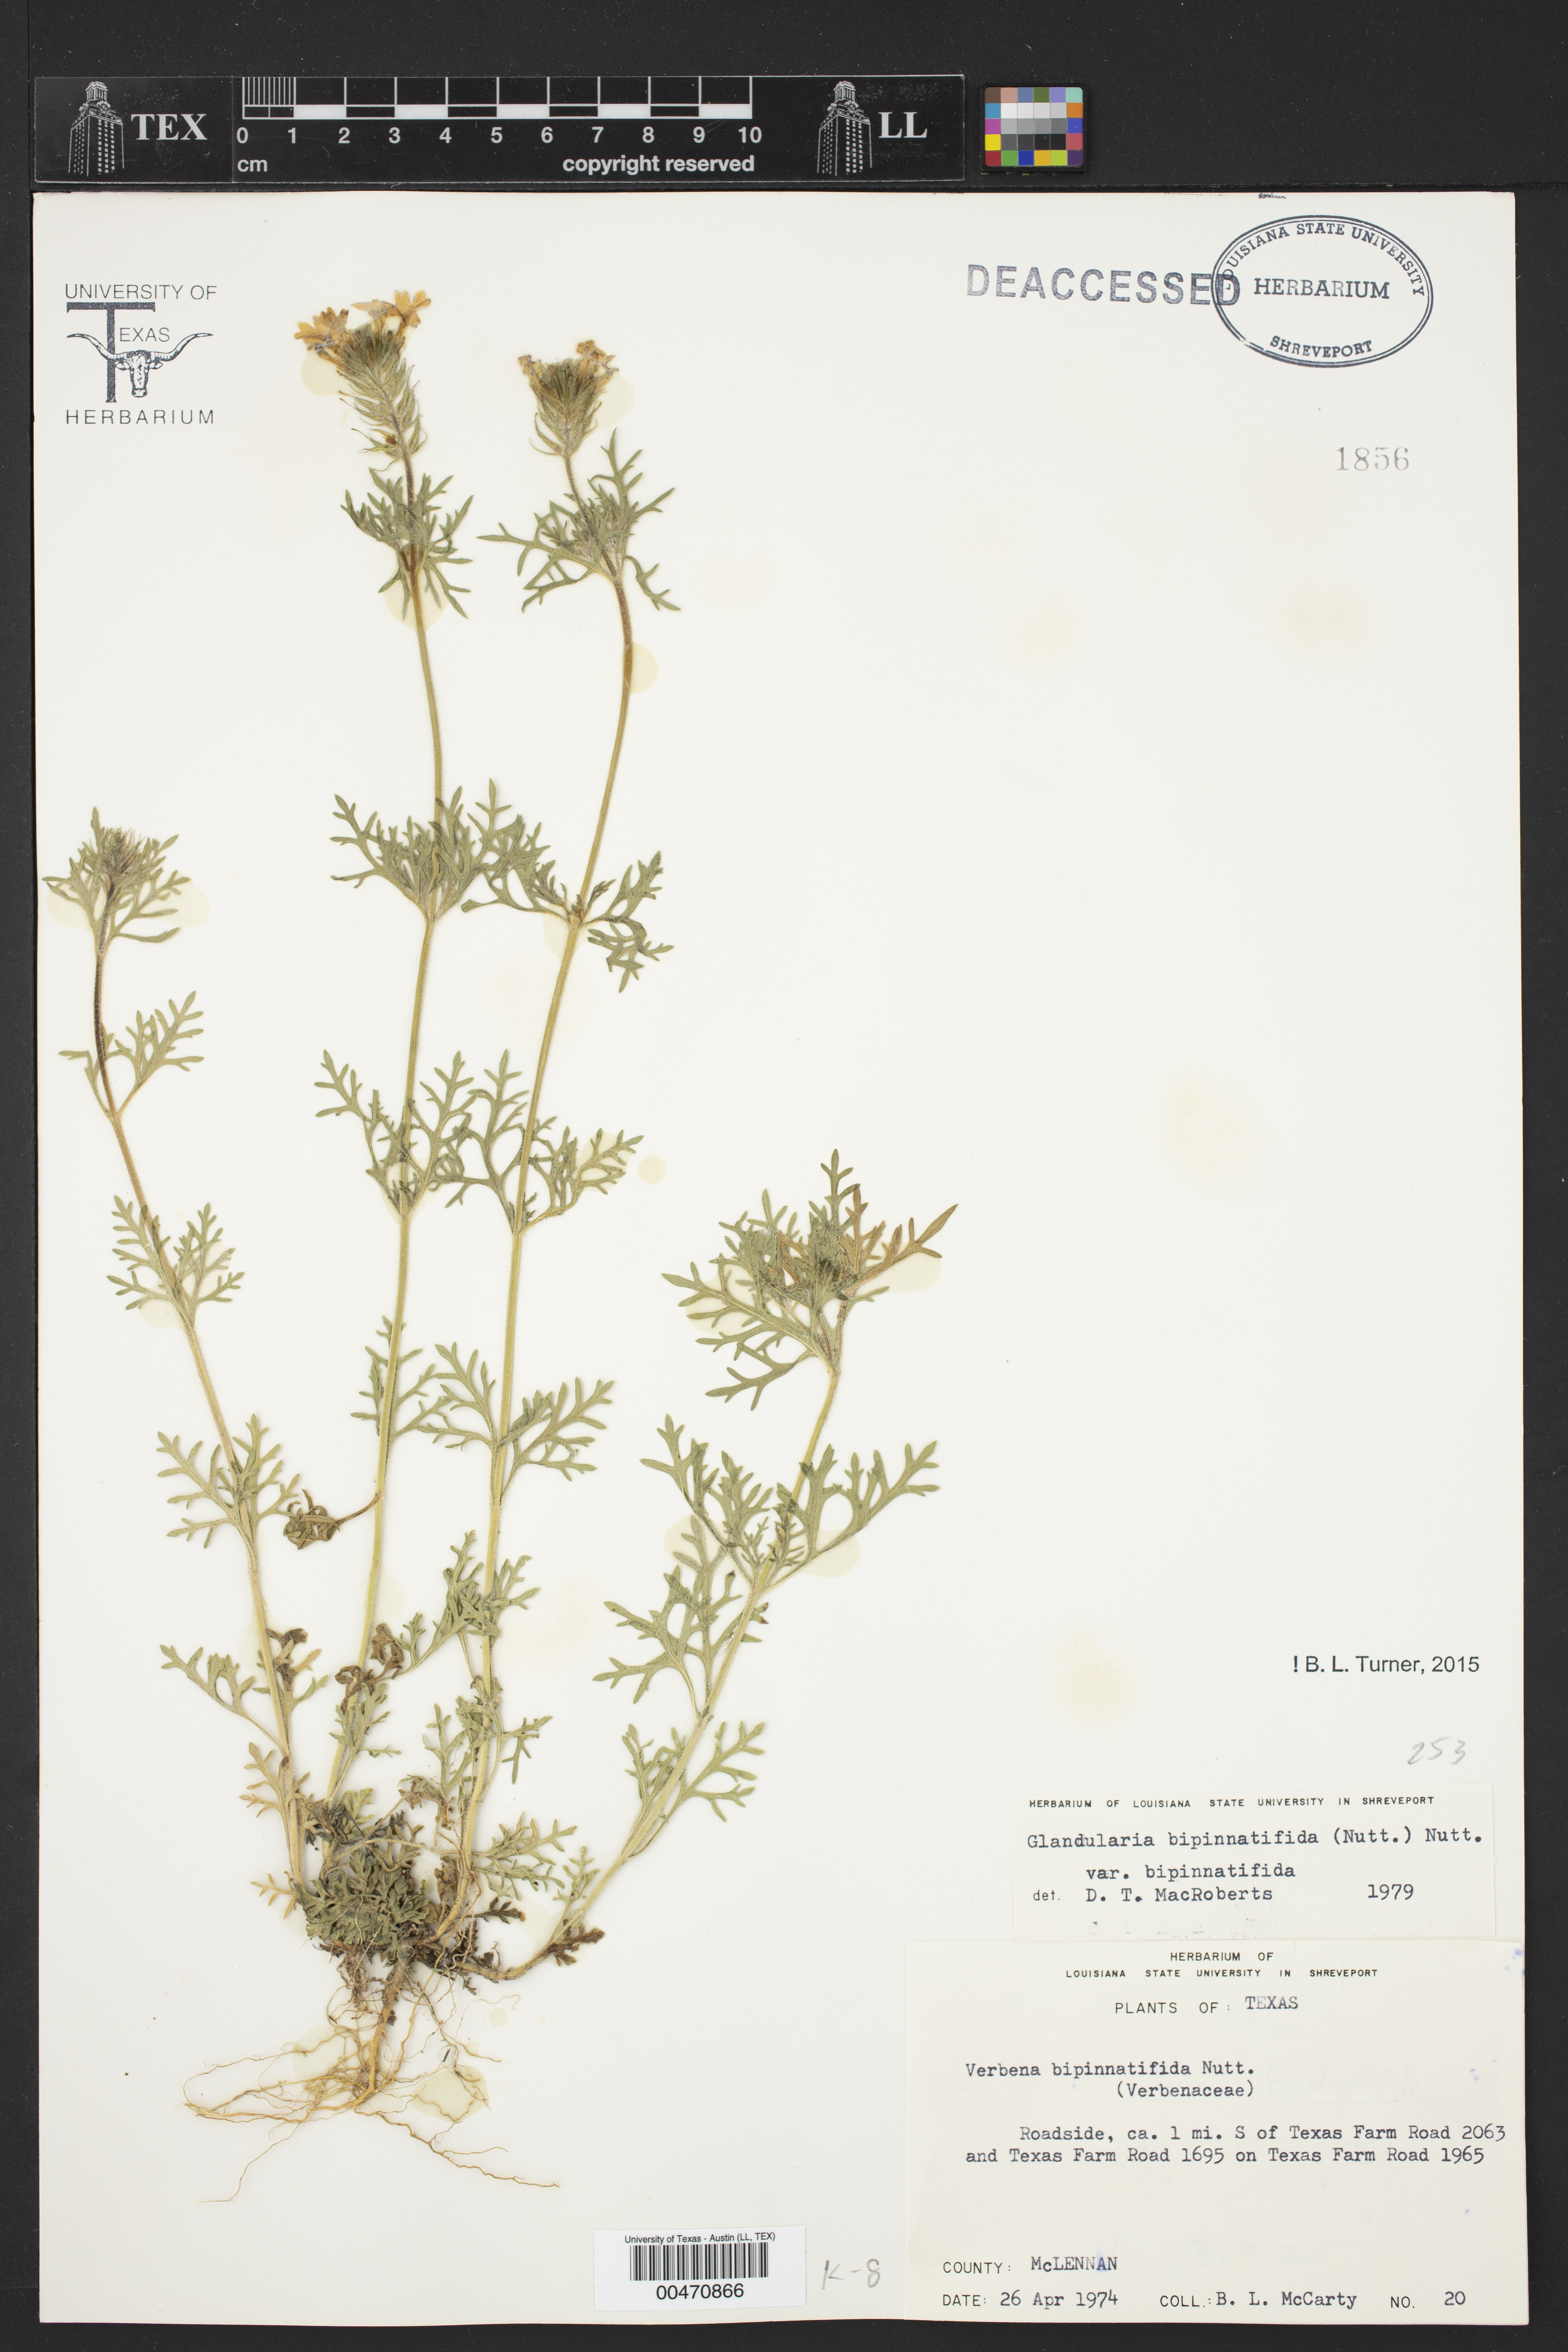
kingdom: Plantae
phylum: Tracheophyta
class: Magnoliopsida
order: Lamiales
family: Verbenaceae
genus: Verbena
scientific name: Verbena bipinnatifida
